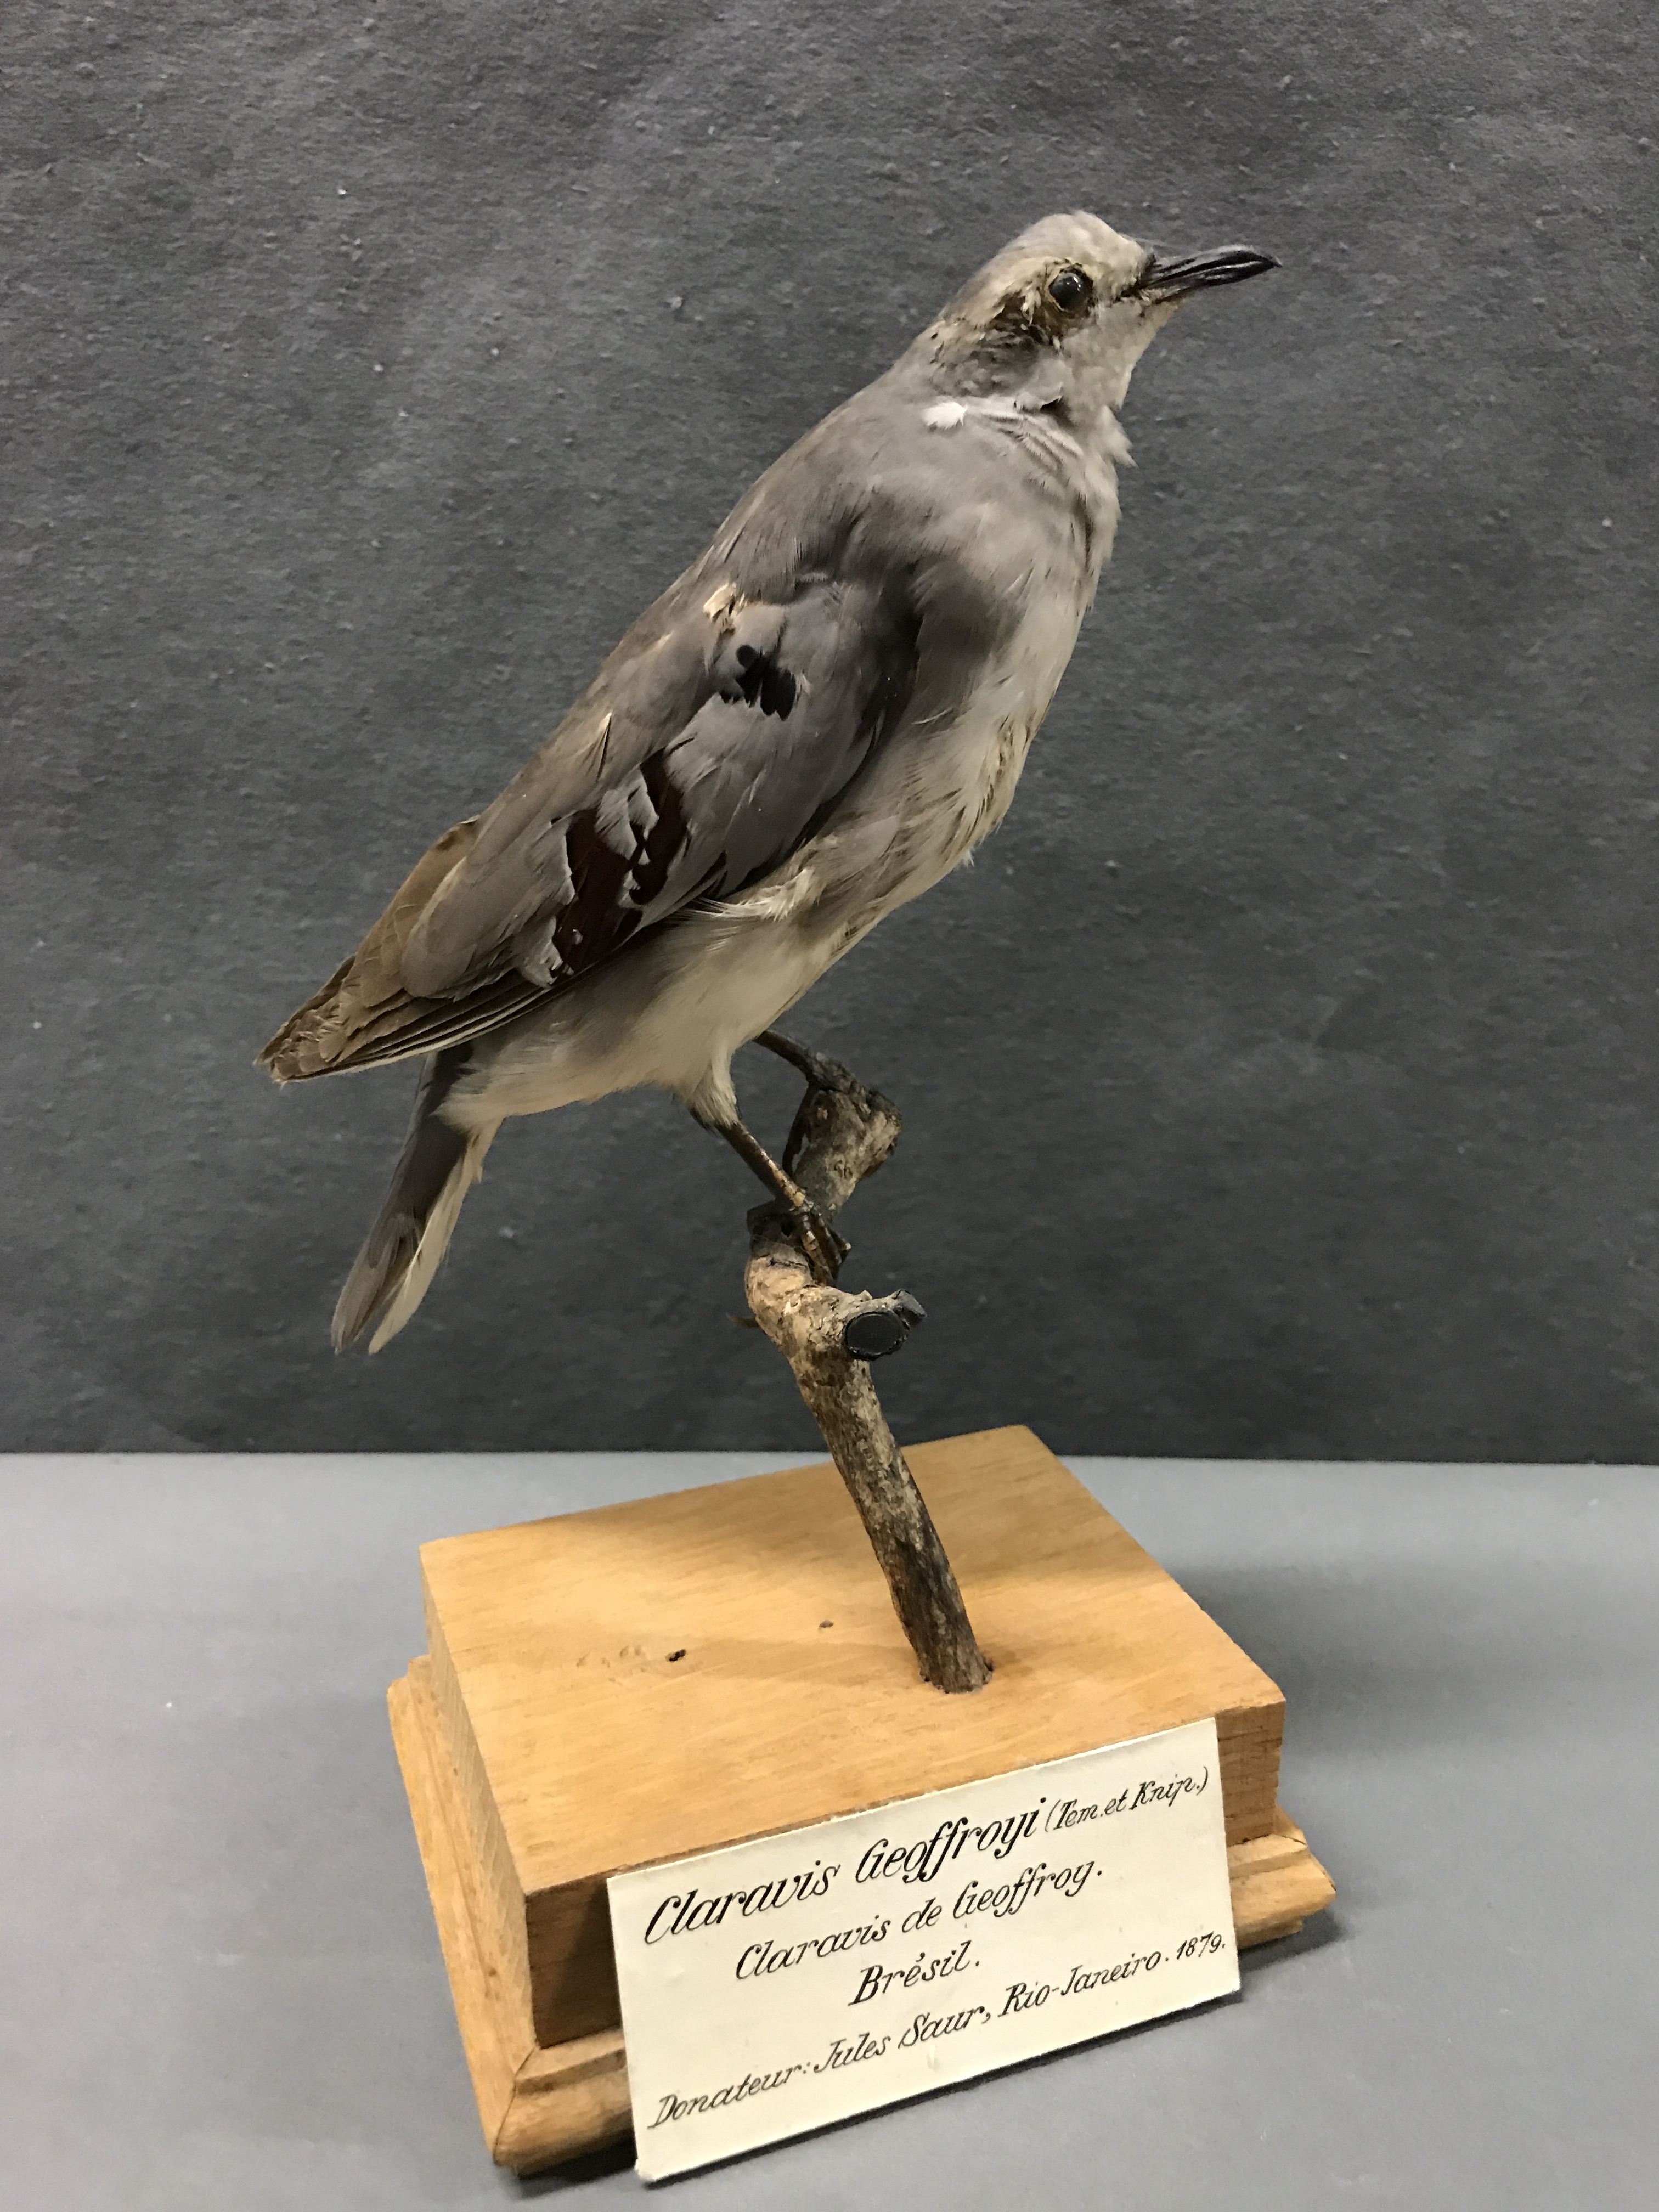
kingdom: Animalia
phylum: Chordata
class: Aves
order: Columbiformes
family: Columbidae
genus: Claravis
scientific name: Claravis geoffroyi
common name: Purple-winged ground dove
